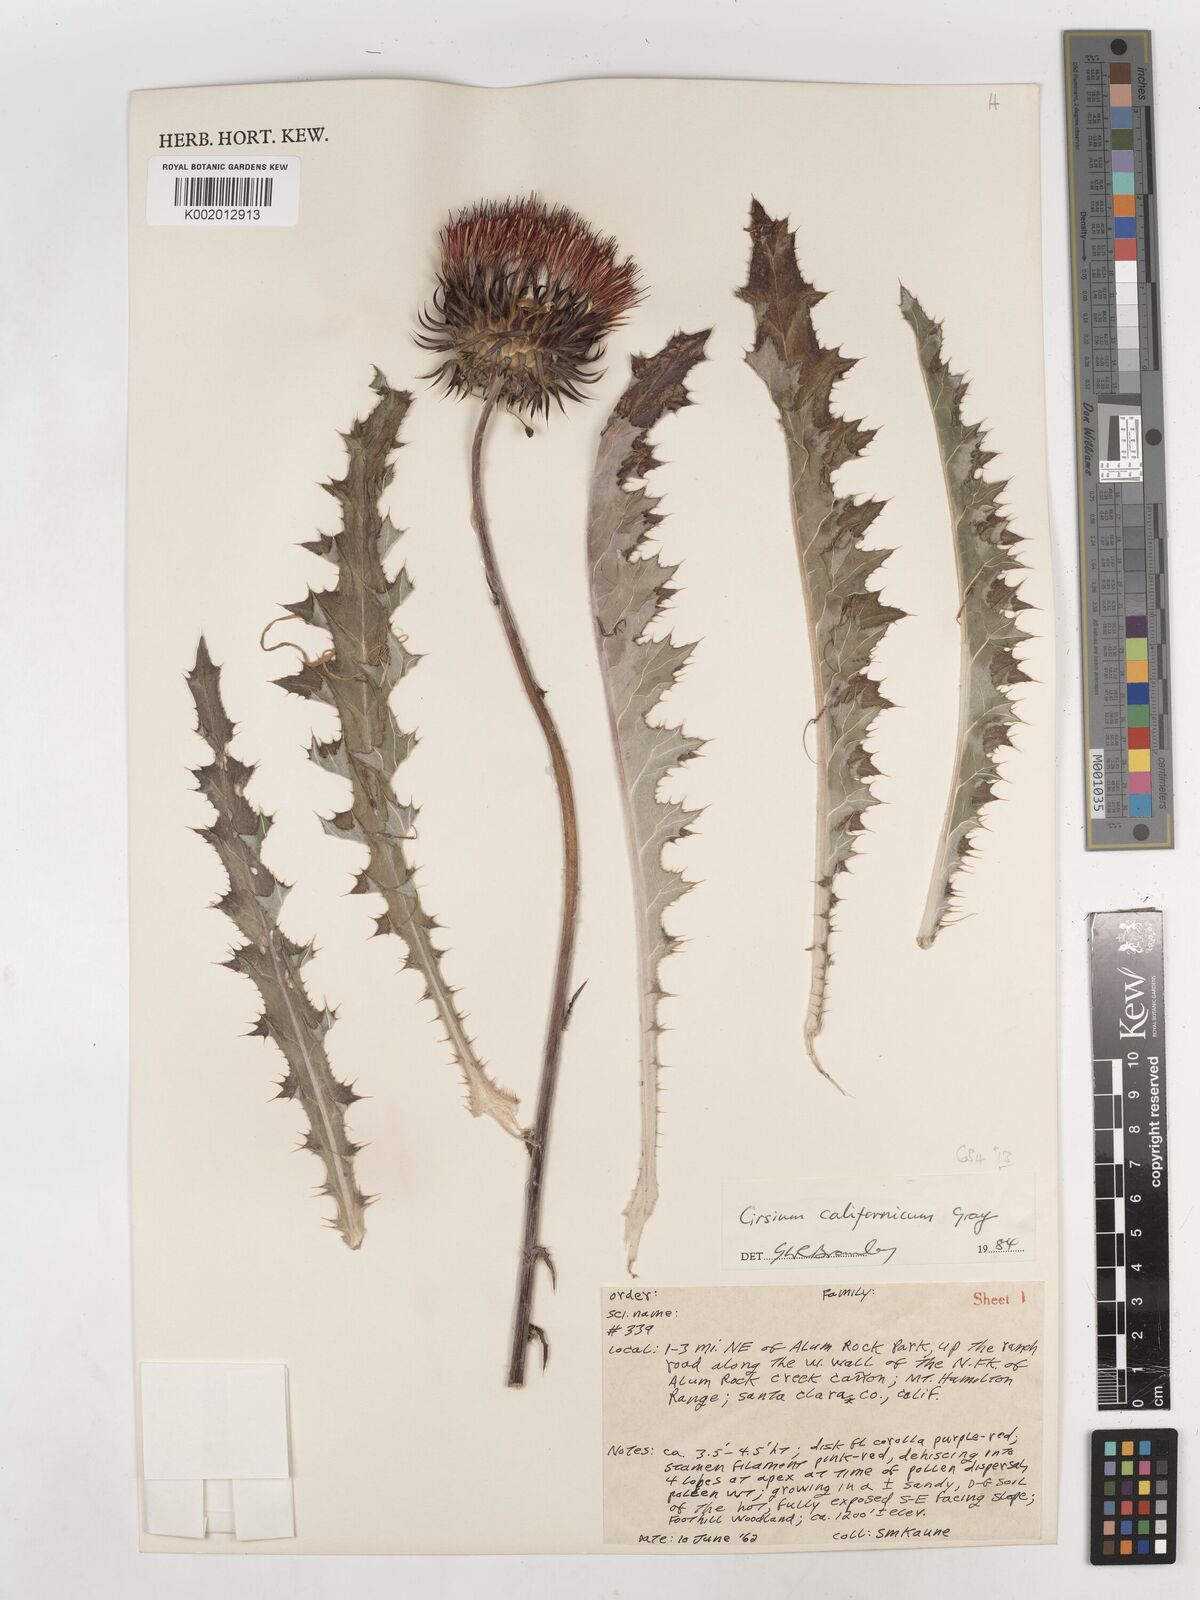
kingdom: Plantae
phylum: Tracheophyta
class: Magnoliopsida
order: Asterales
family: Asteraceae
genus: Cirsium
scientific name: Cirsium occidentale
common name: Western thistle
